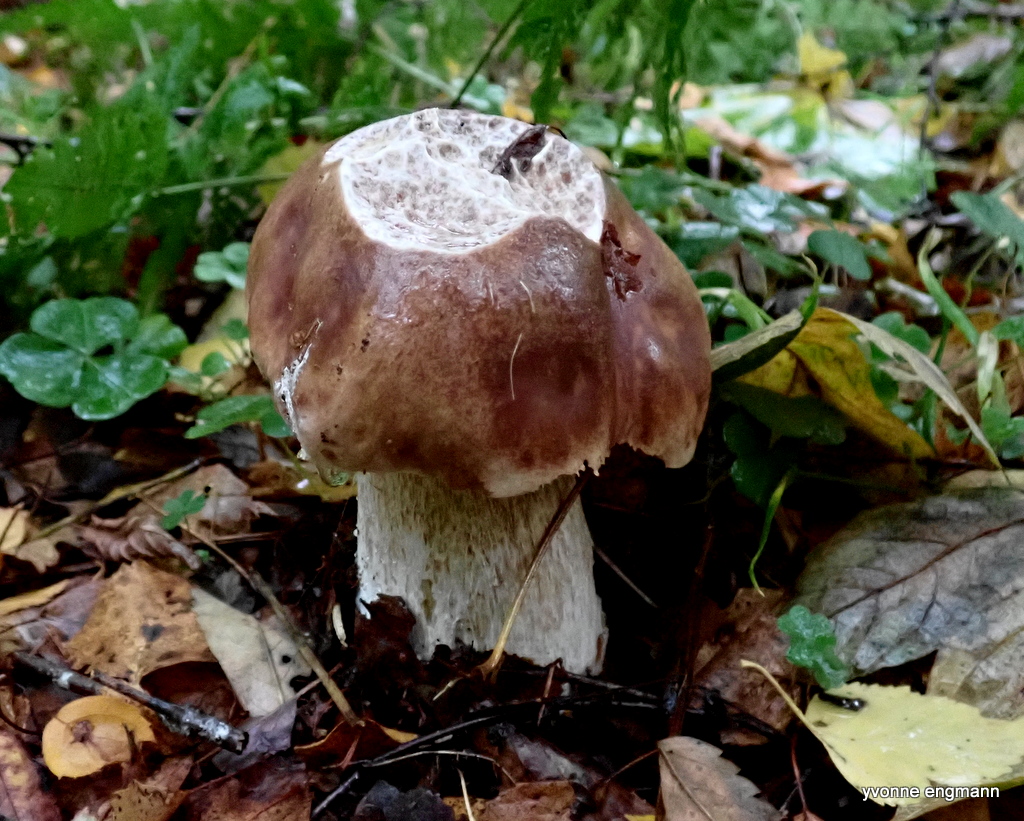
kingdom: Fungi
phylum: Basidiomycota
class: Agaricomycetes
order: Boletales
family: Boletaceae
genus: Boletus
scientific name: Boletus edulis
